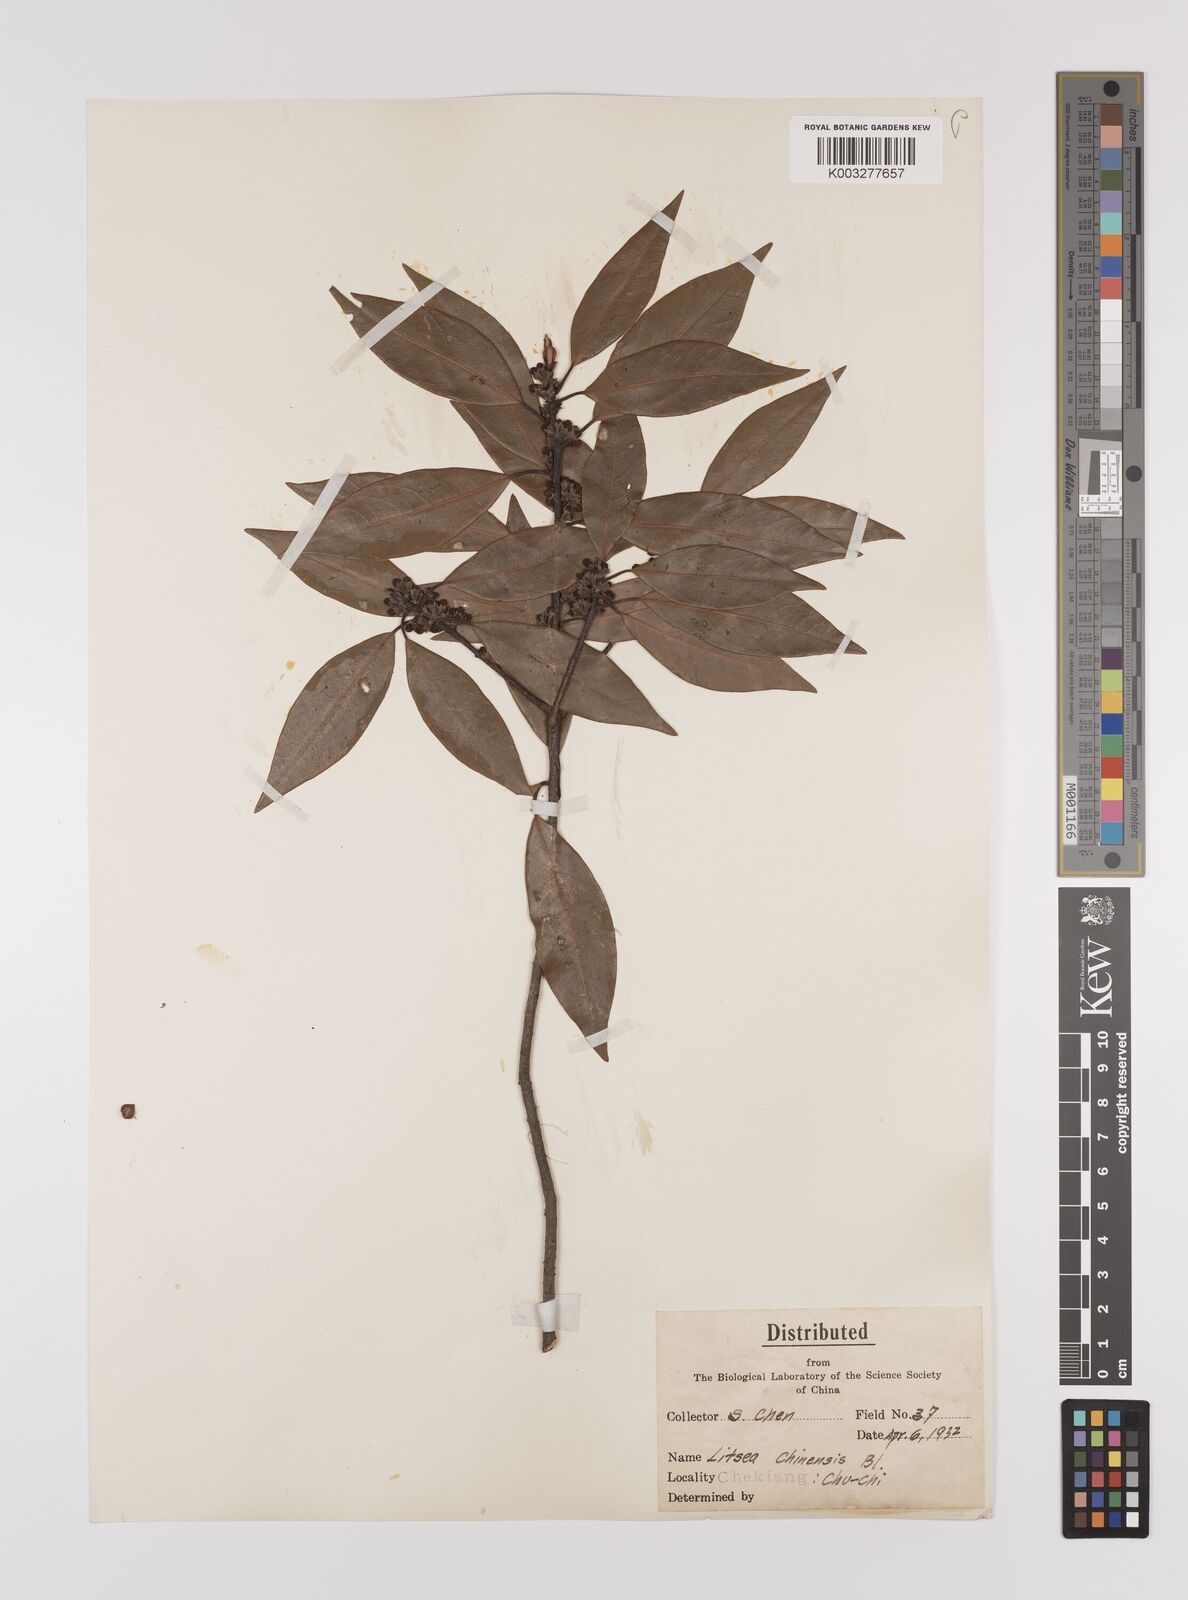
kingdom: Plantae
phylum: Tracheophyta
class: Magnoliopsida
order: Laurales
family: Lauraceae
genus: Litsea
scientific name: Litsea rotundifolia
